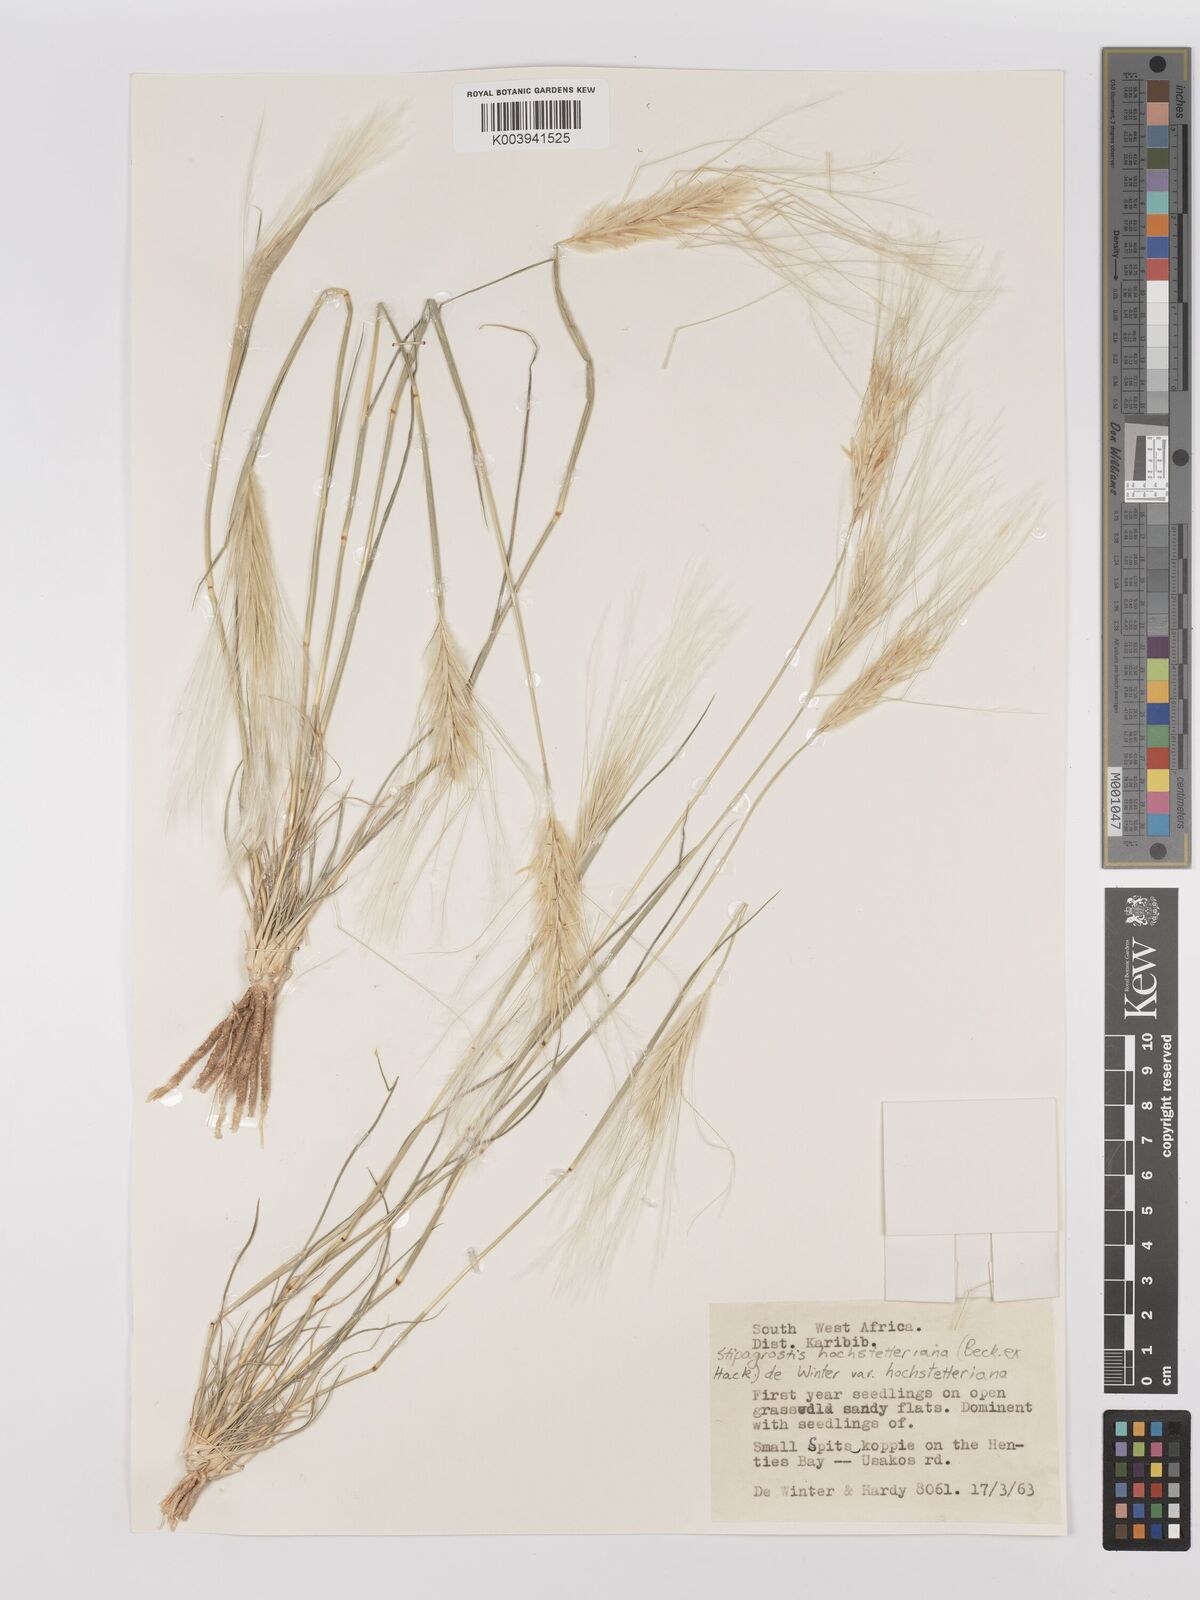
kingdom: Plantae
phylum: Tracheophyta
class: Liliopsida
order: Poales
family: Poaceae
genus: Stipagrostis
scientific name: Stipagrostis hochstetteriana
